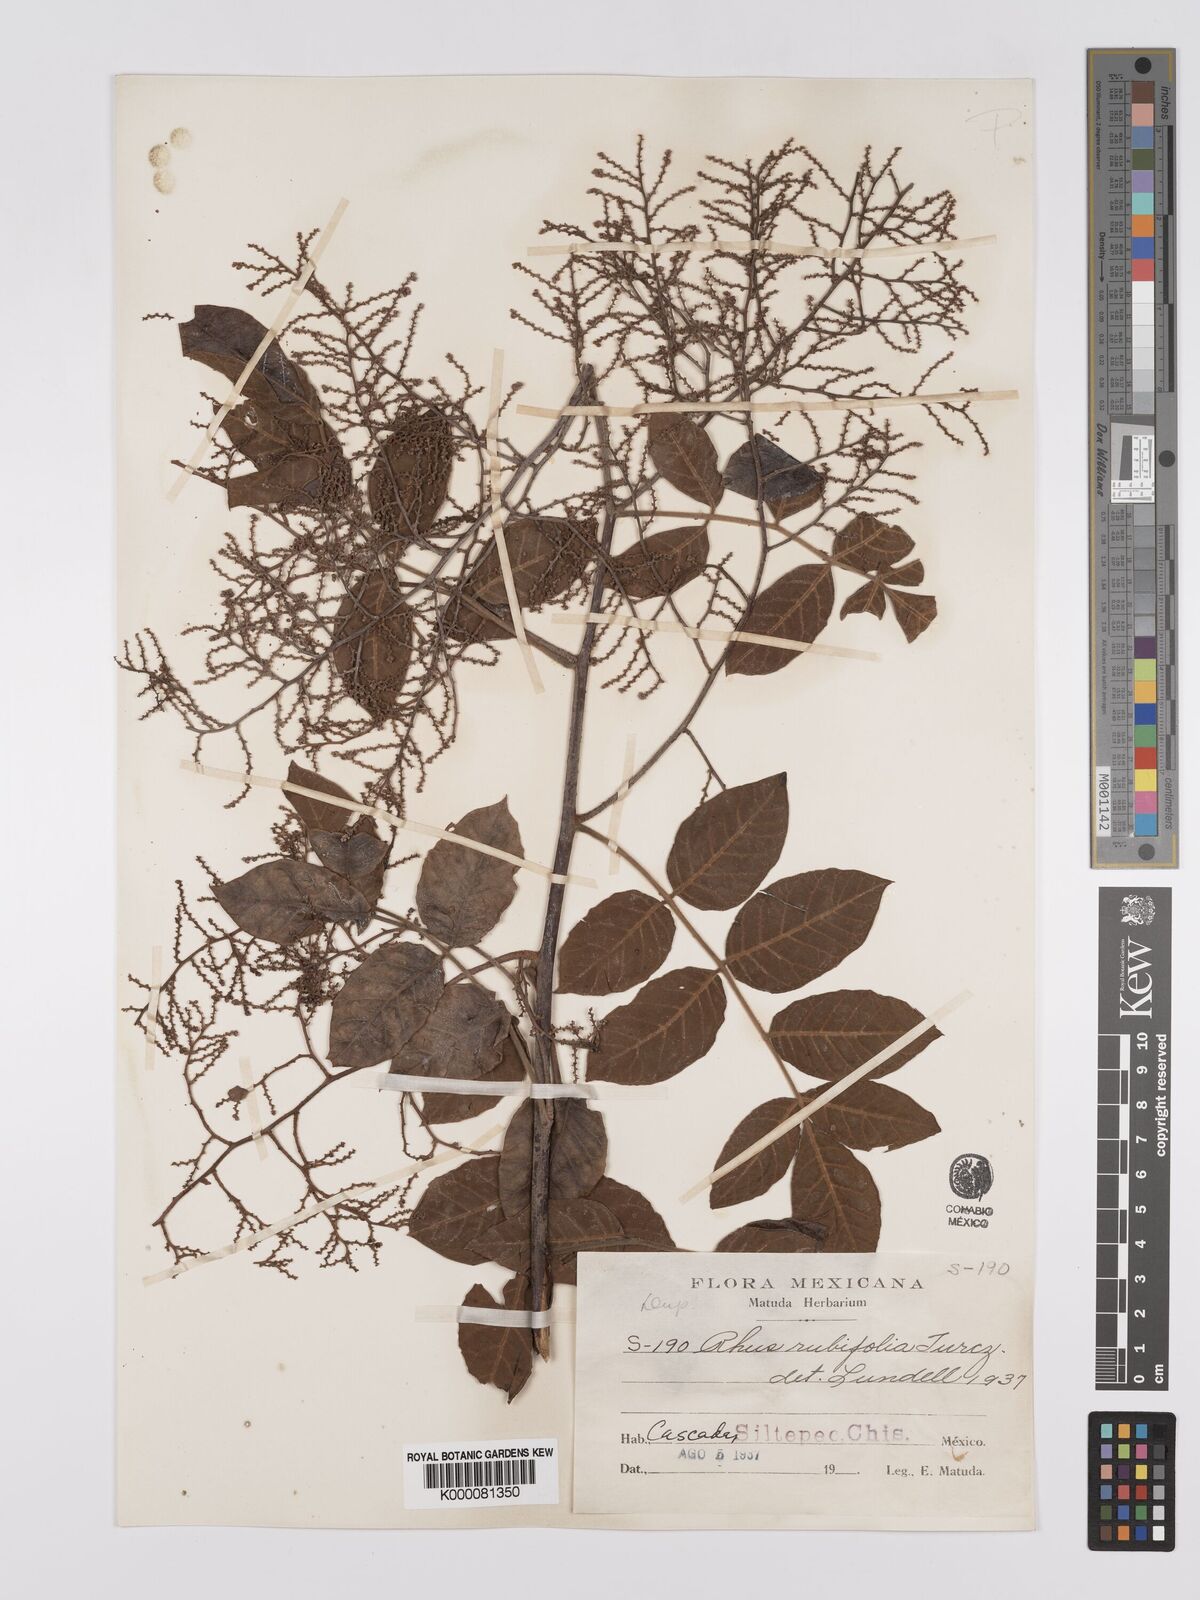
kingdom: Plantae
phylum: Tracheophyta
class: Magnoliopsida
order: Sapindales
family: Anacardiaceae
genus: Rhus
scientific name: Rhus rubifolia
